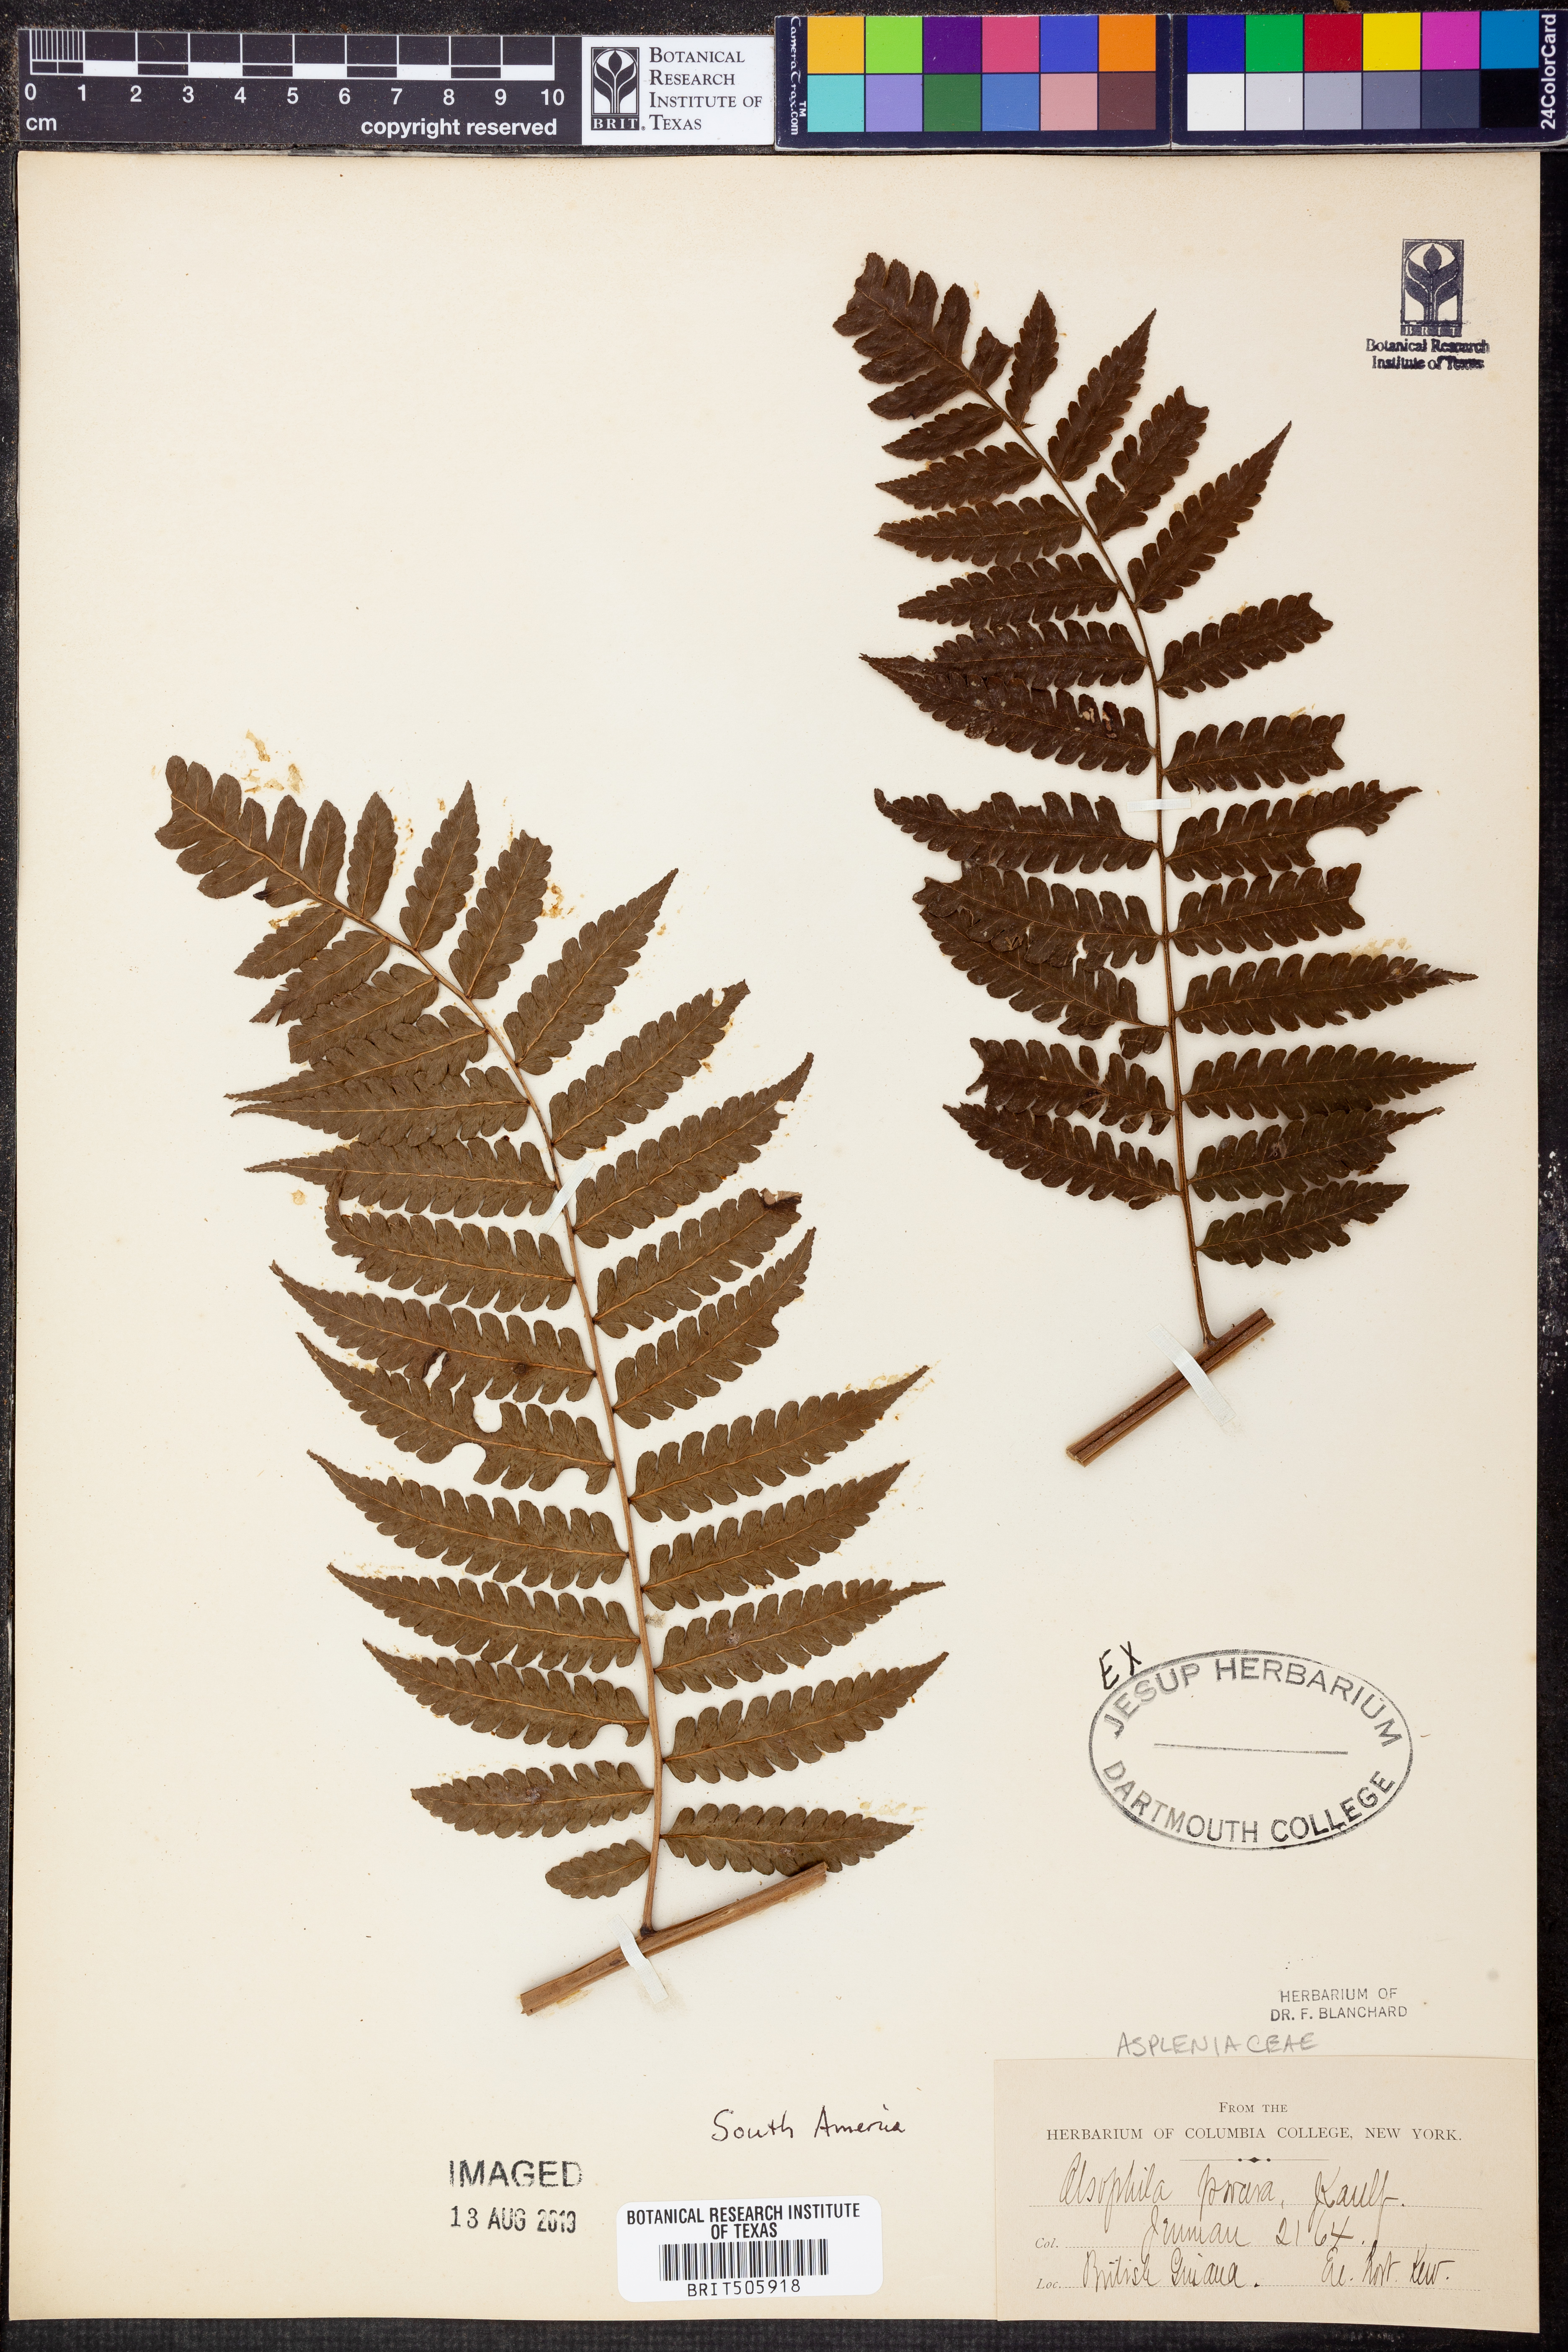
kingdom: Plantae
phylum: Tracheophyta
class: Polypodiopsida
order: Cyatheales
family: Cyatheaceae
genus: Cyathea
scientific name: Cyathea armata
